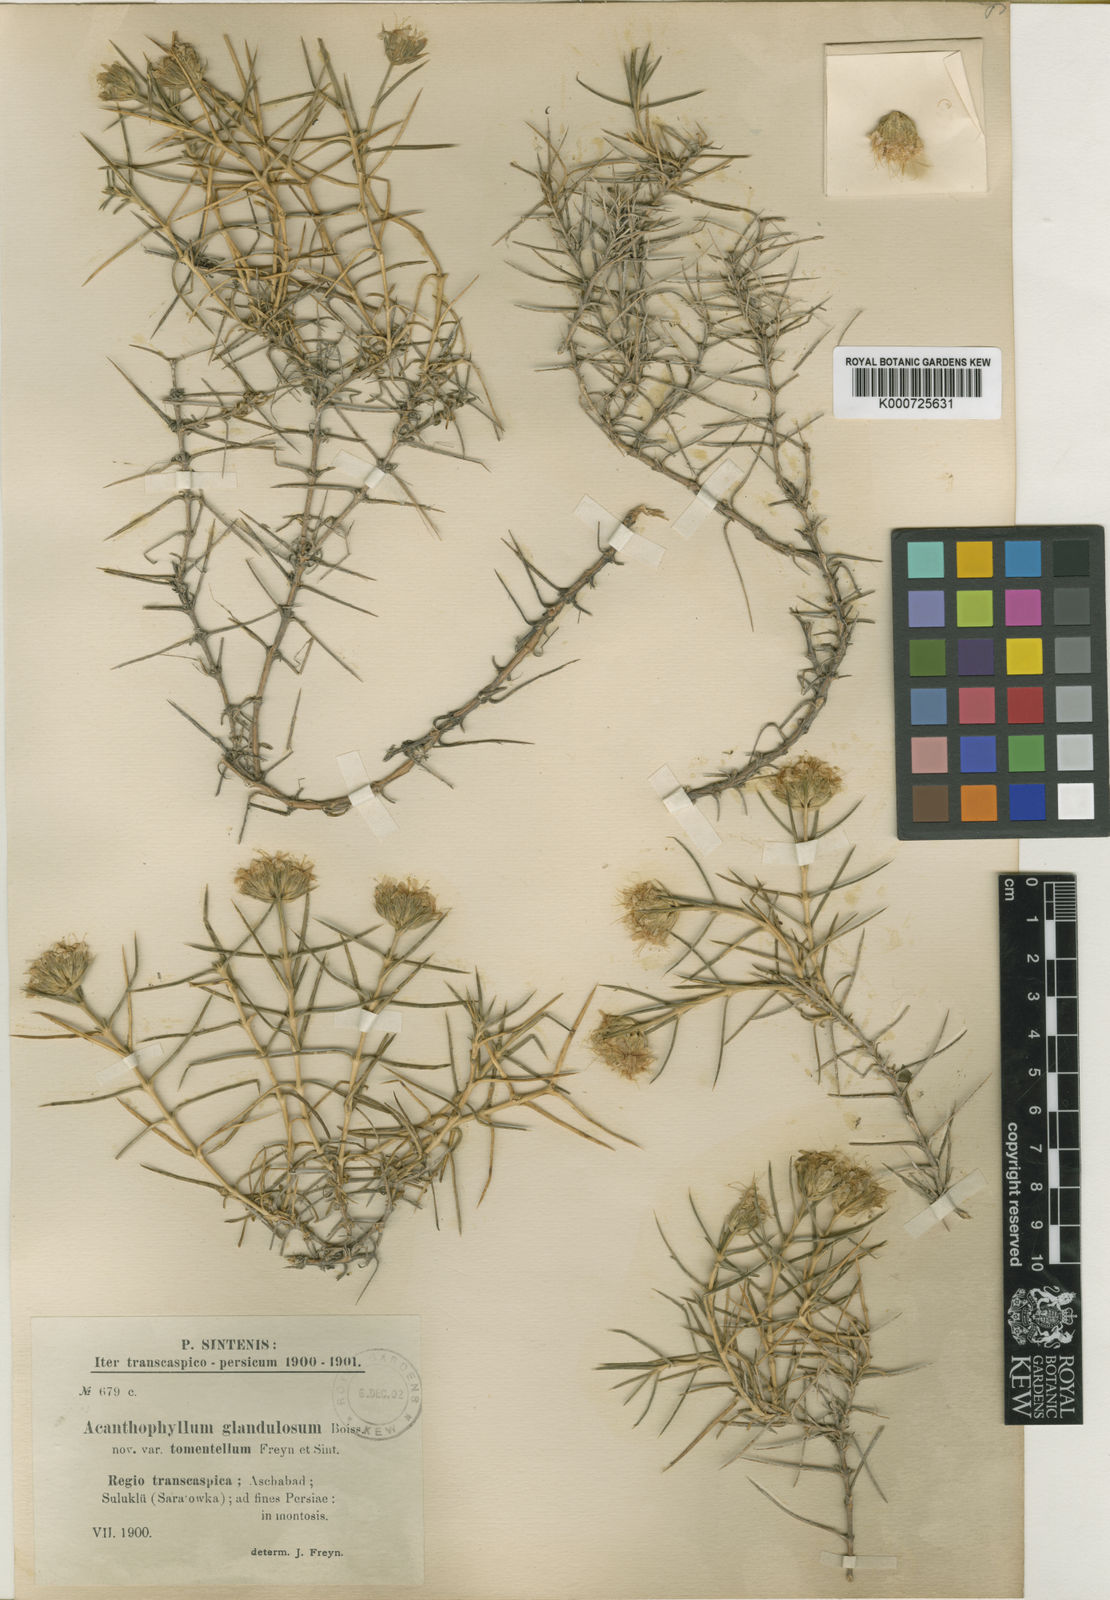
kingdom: Plantae
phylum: Tracheophyta
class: Magnoliopsida
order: Caryophyllales
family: Caryophyllaceae
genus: Acanthophyllum
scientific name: Acanthophyllum
